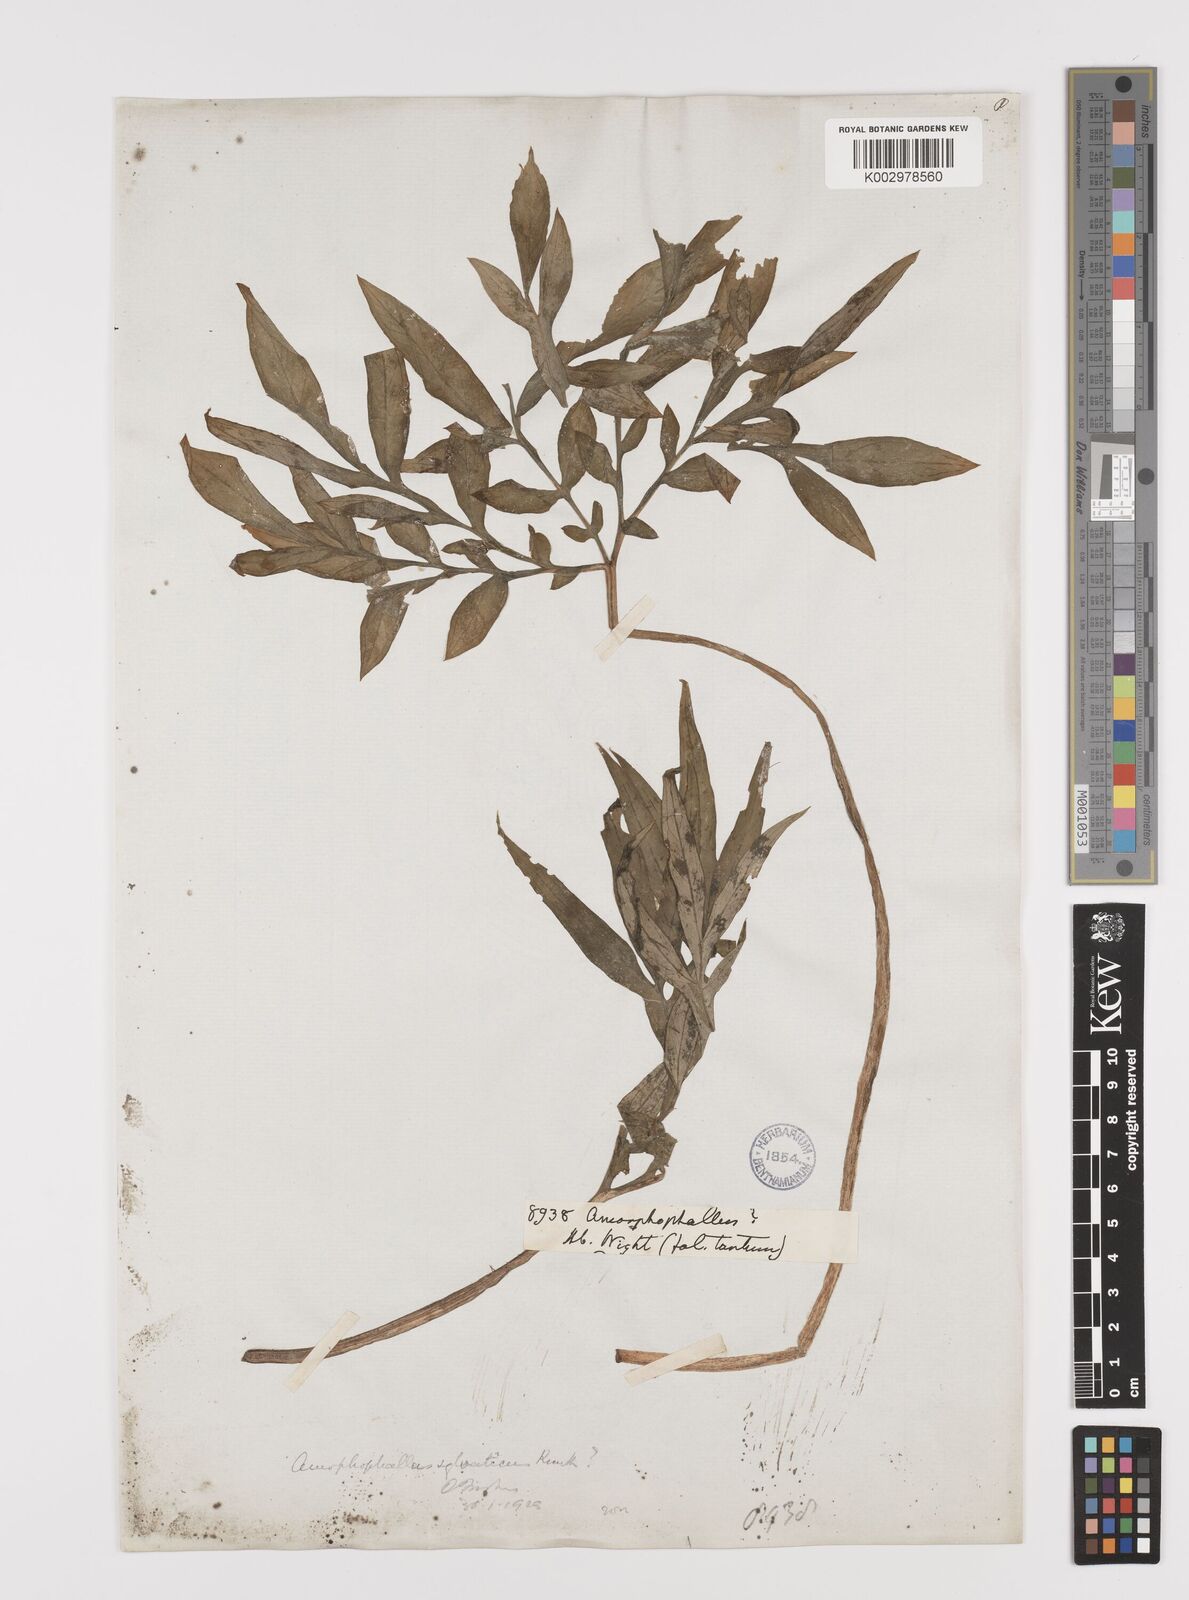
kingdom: Plantae
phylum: Tracheophyta
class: Liliopsida
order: Alismatales
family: Araceae
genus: Amorphophallus
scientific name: Amorphophallus sylvaticus
